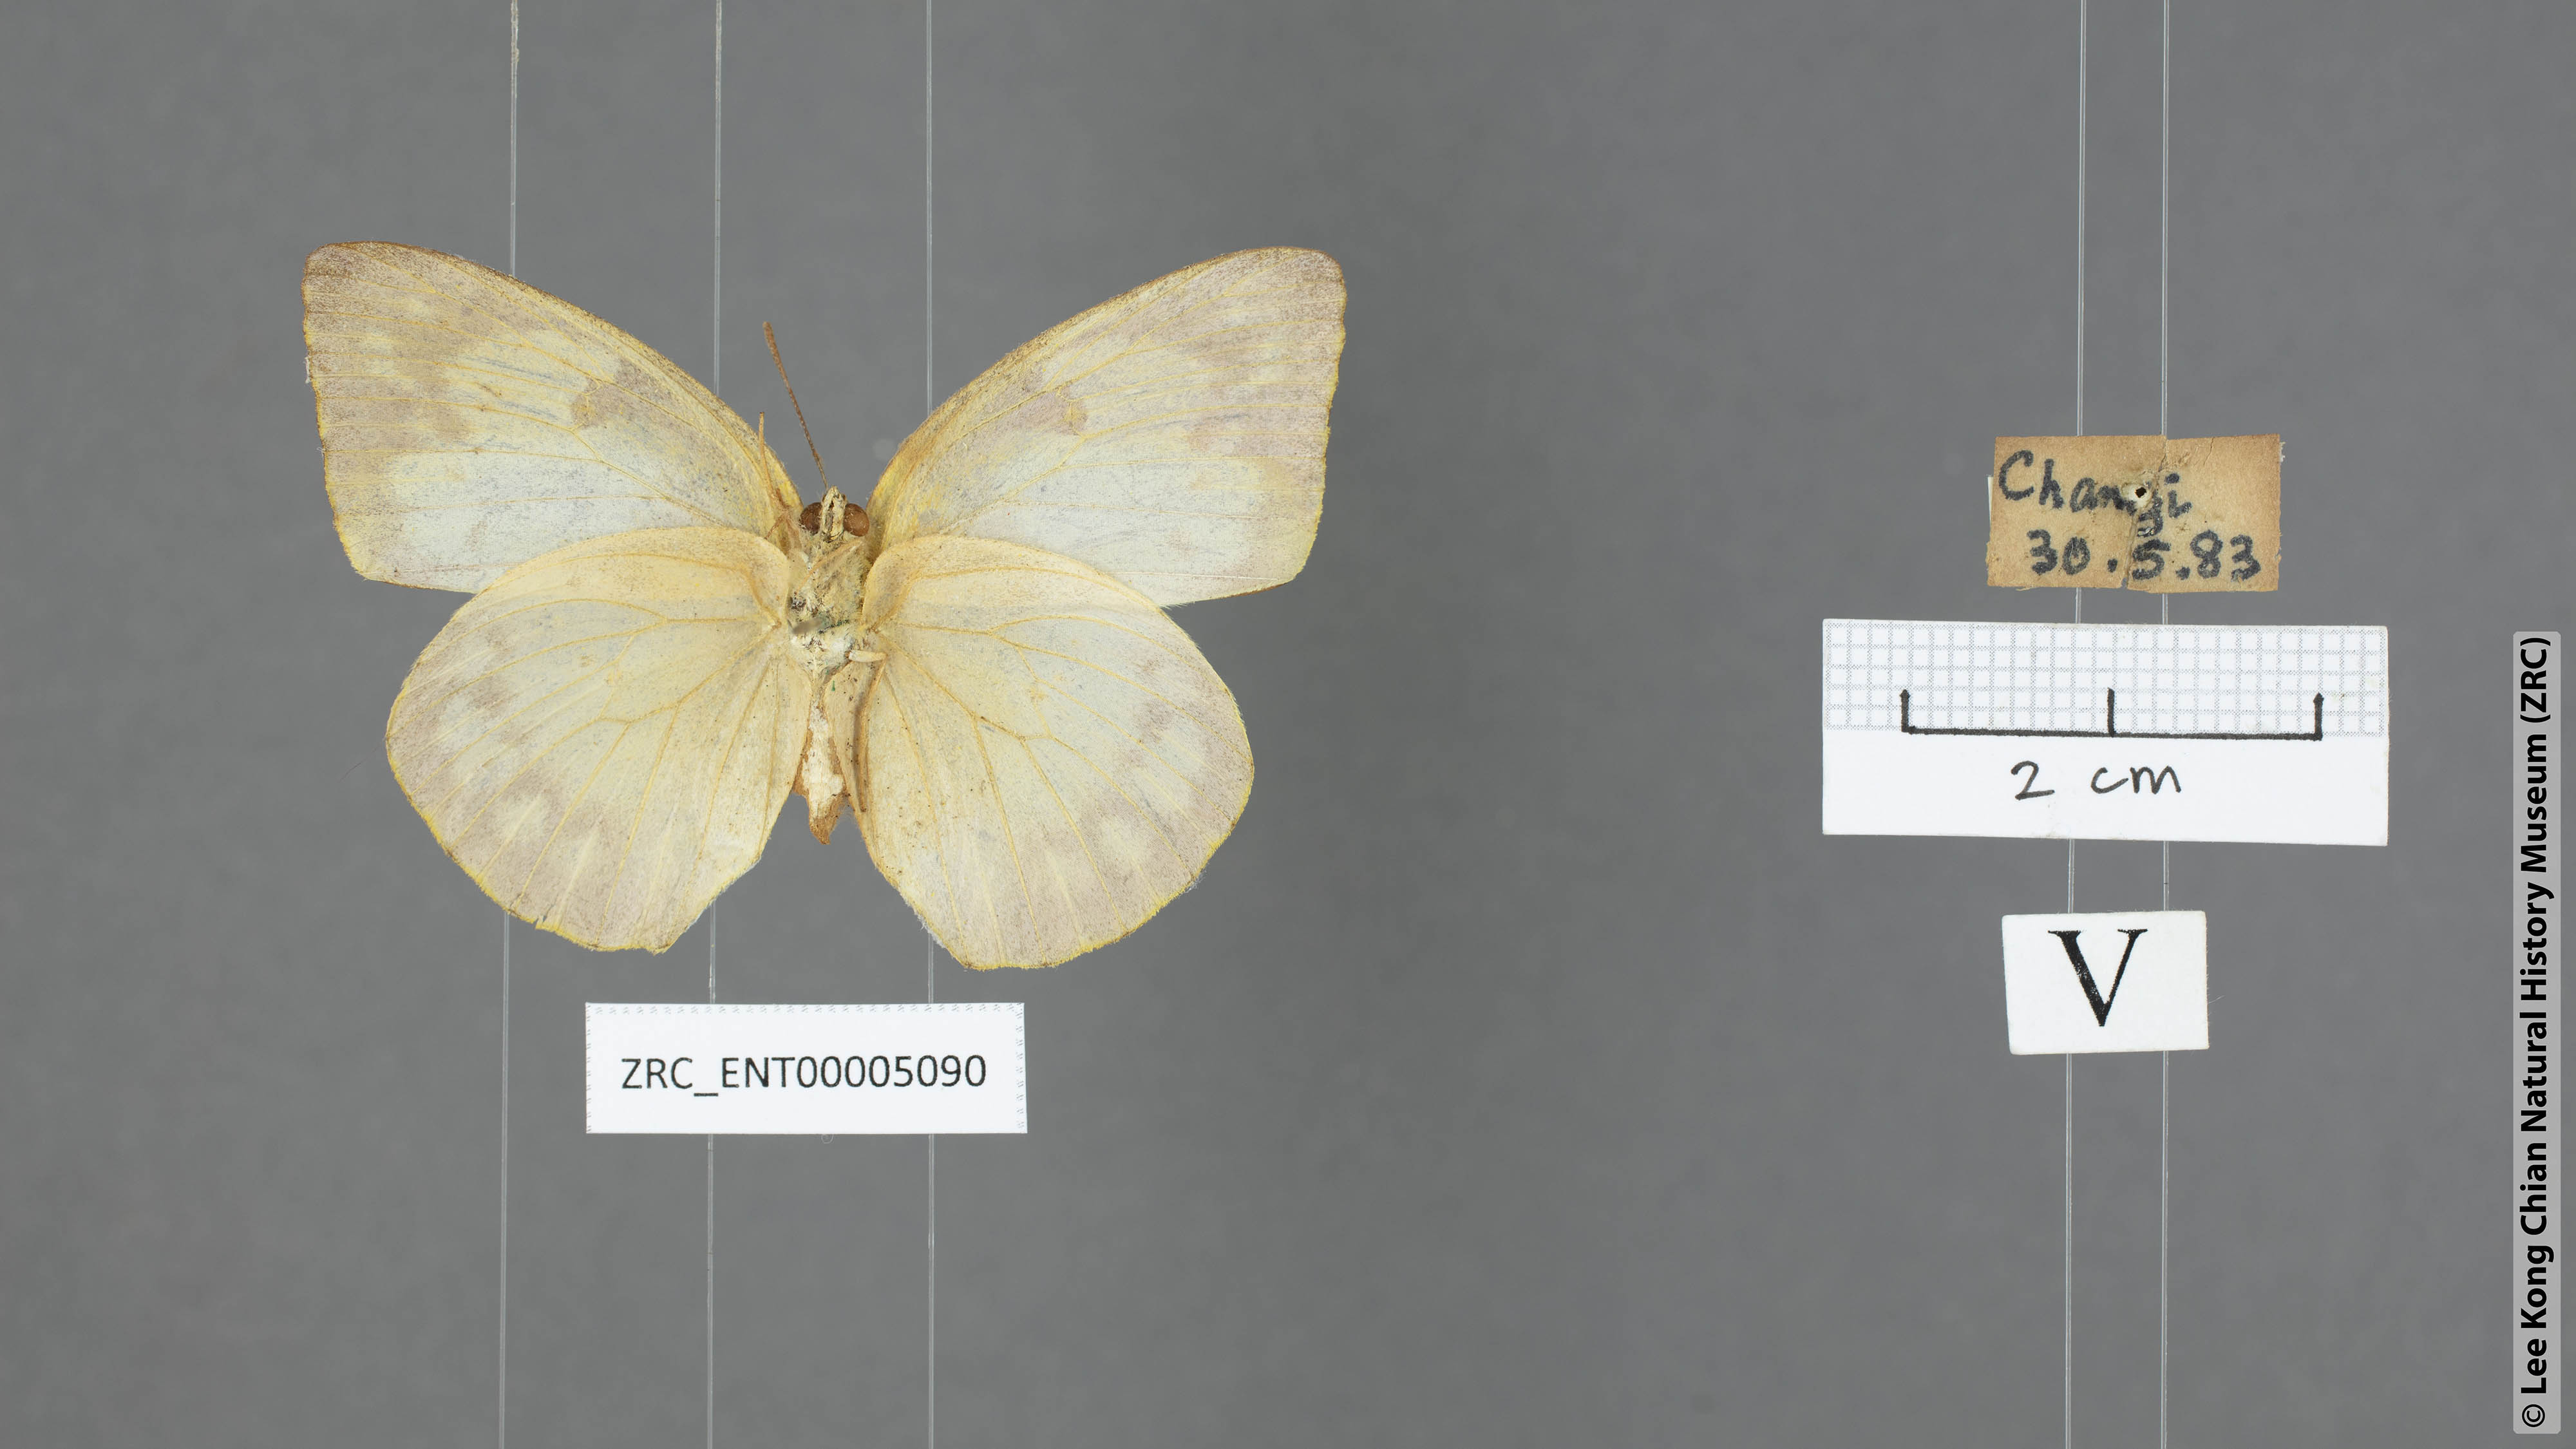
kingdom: Animalia
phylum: Arthropoda
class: Insecta
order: Lepidoptera
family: Pieridae
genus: Catopsilia
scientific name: Catopsilia pomona
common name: Common emigrant
